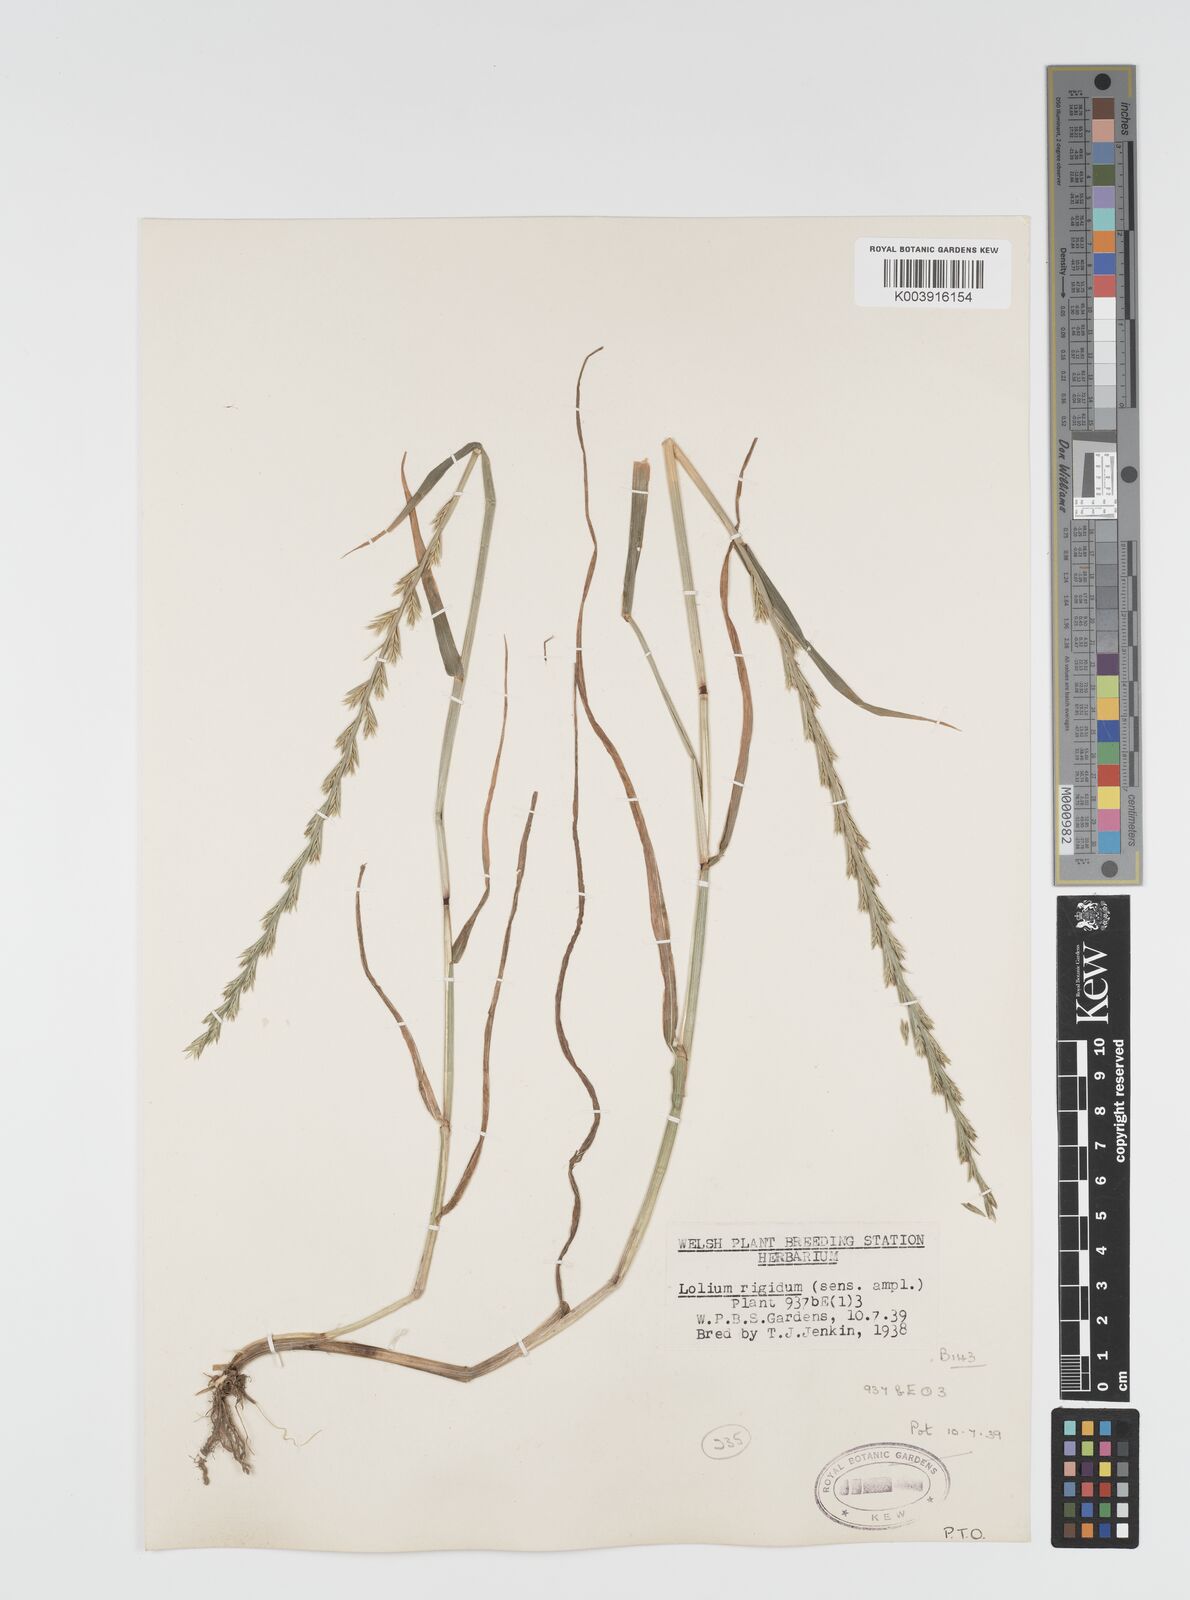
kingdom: Plantae
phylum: Tracheophyta
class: Liliopsida
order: Poales
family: Poaceae
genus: Lolium
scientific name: Lolium rigidum
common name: Wimmera ryegrass
